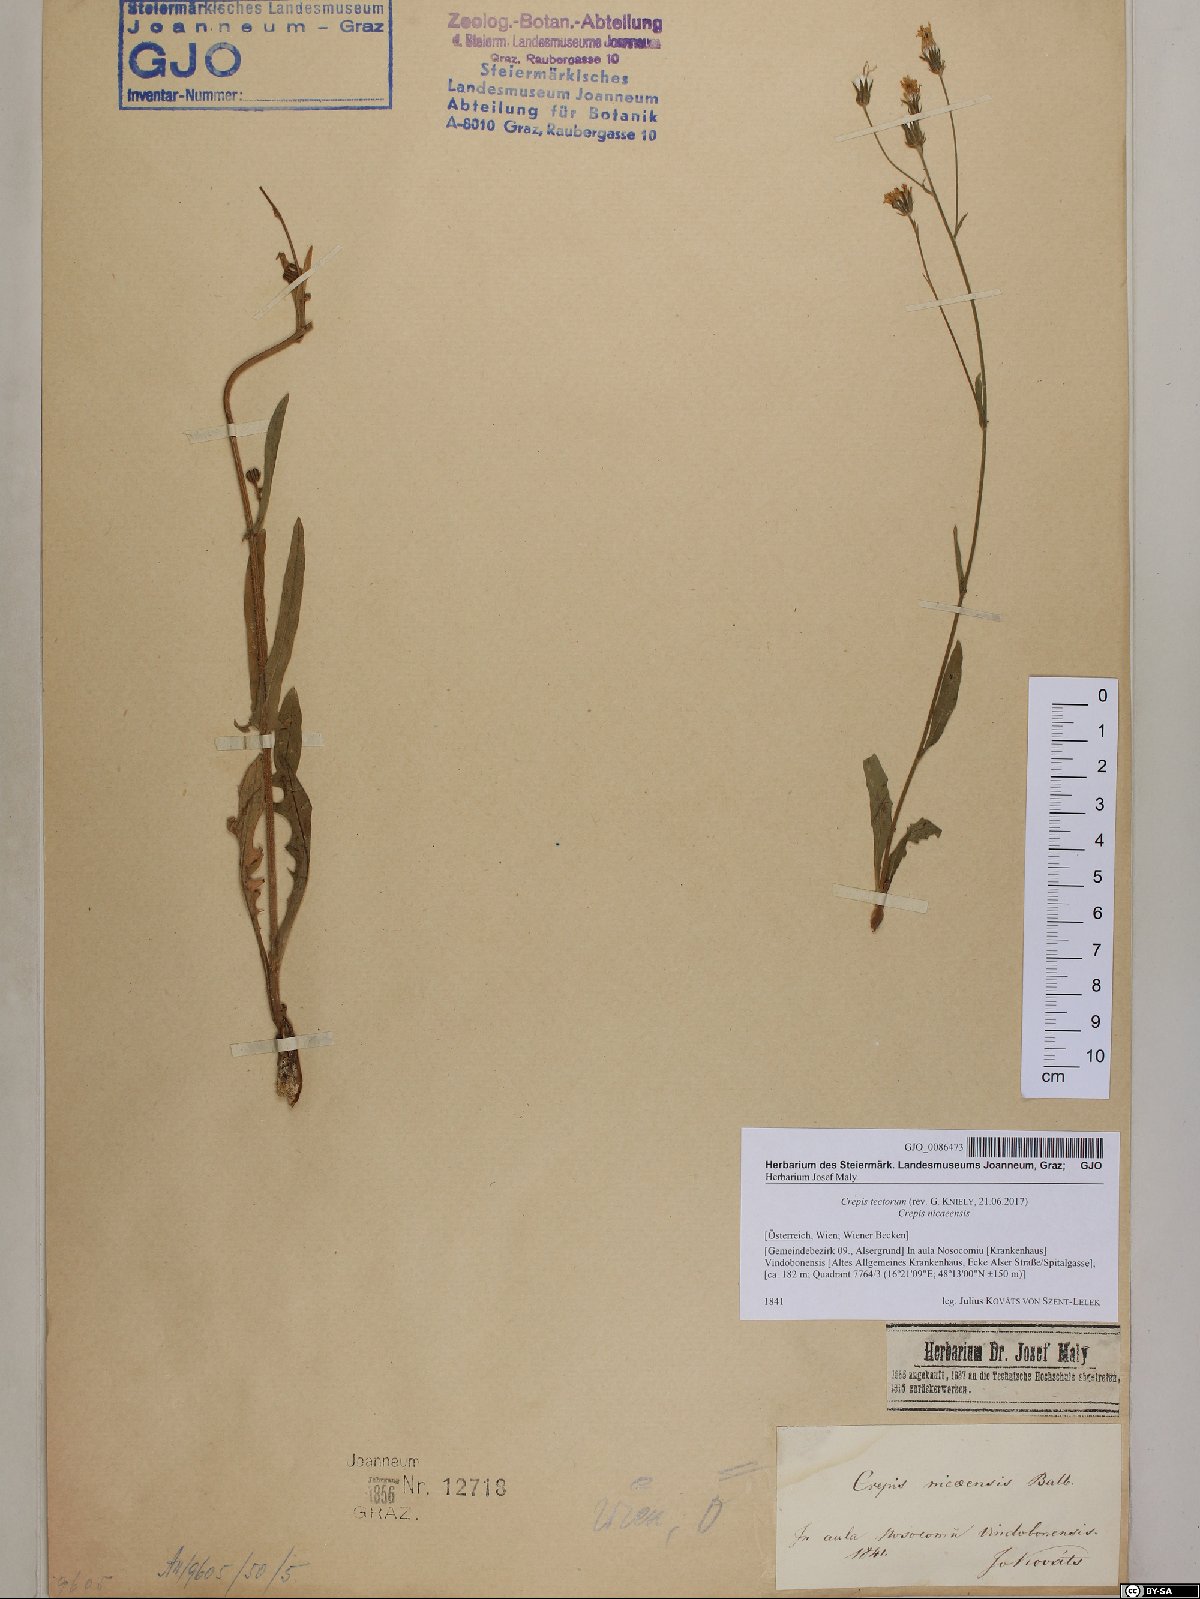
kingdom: Plantae
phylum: Tracheophyta
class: Magnoliopsida
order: Asterales
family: Asteraceae
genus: Crepis
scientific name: Crepis tectorum
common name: Narrow-leaved hawk's-beard
